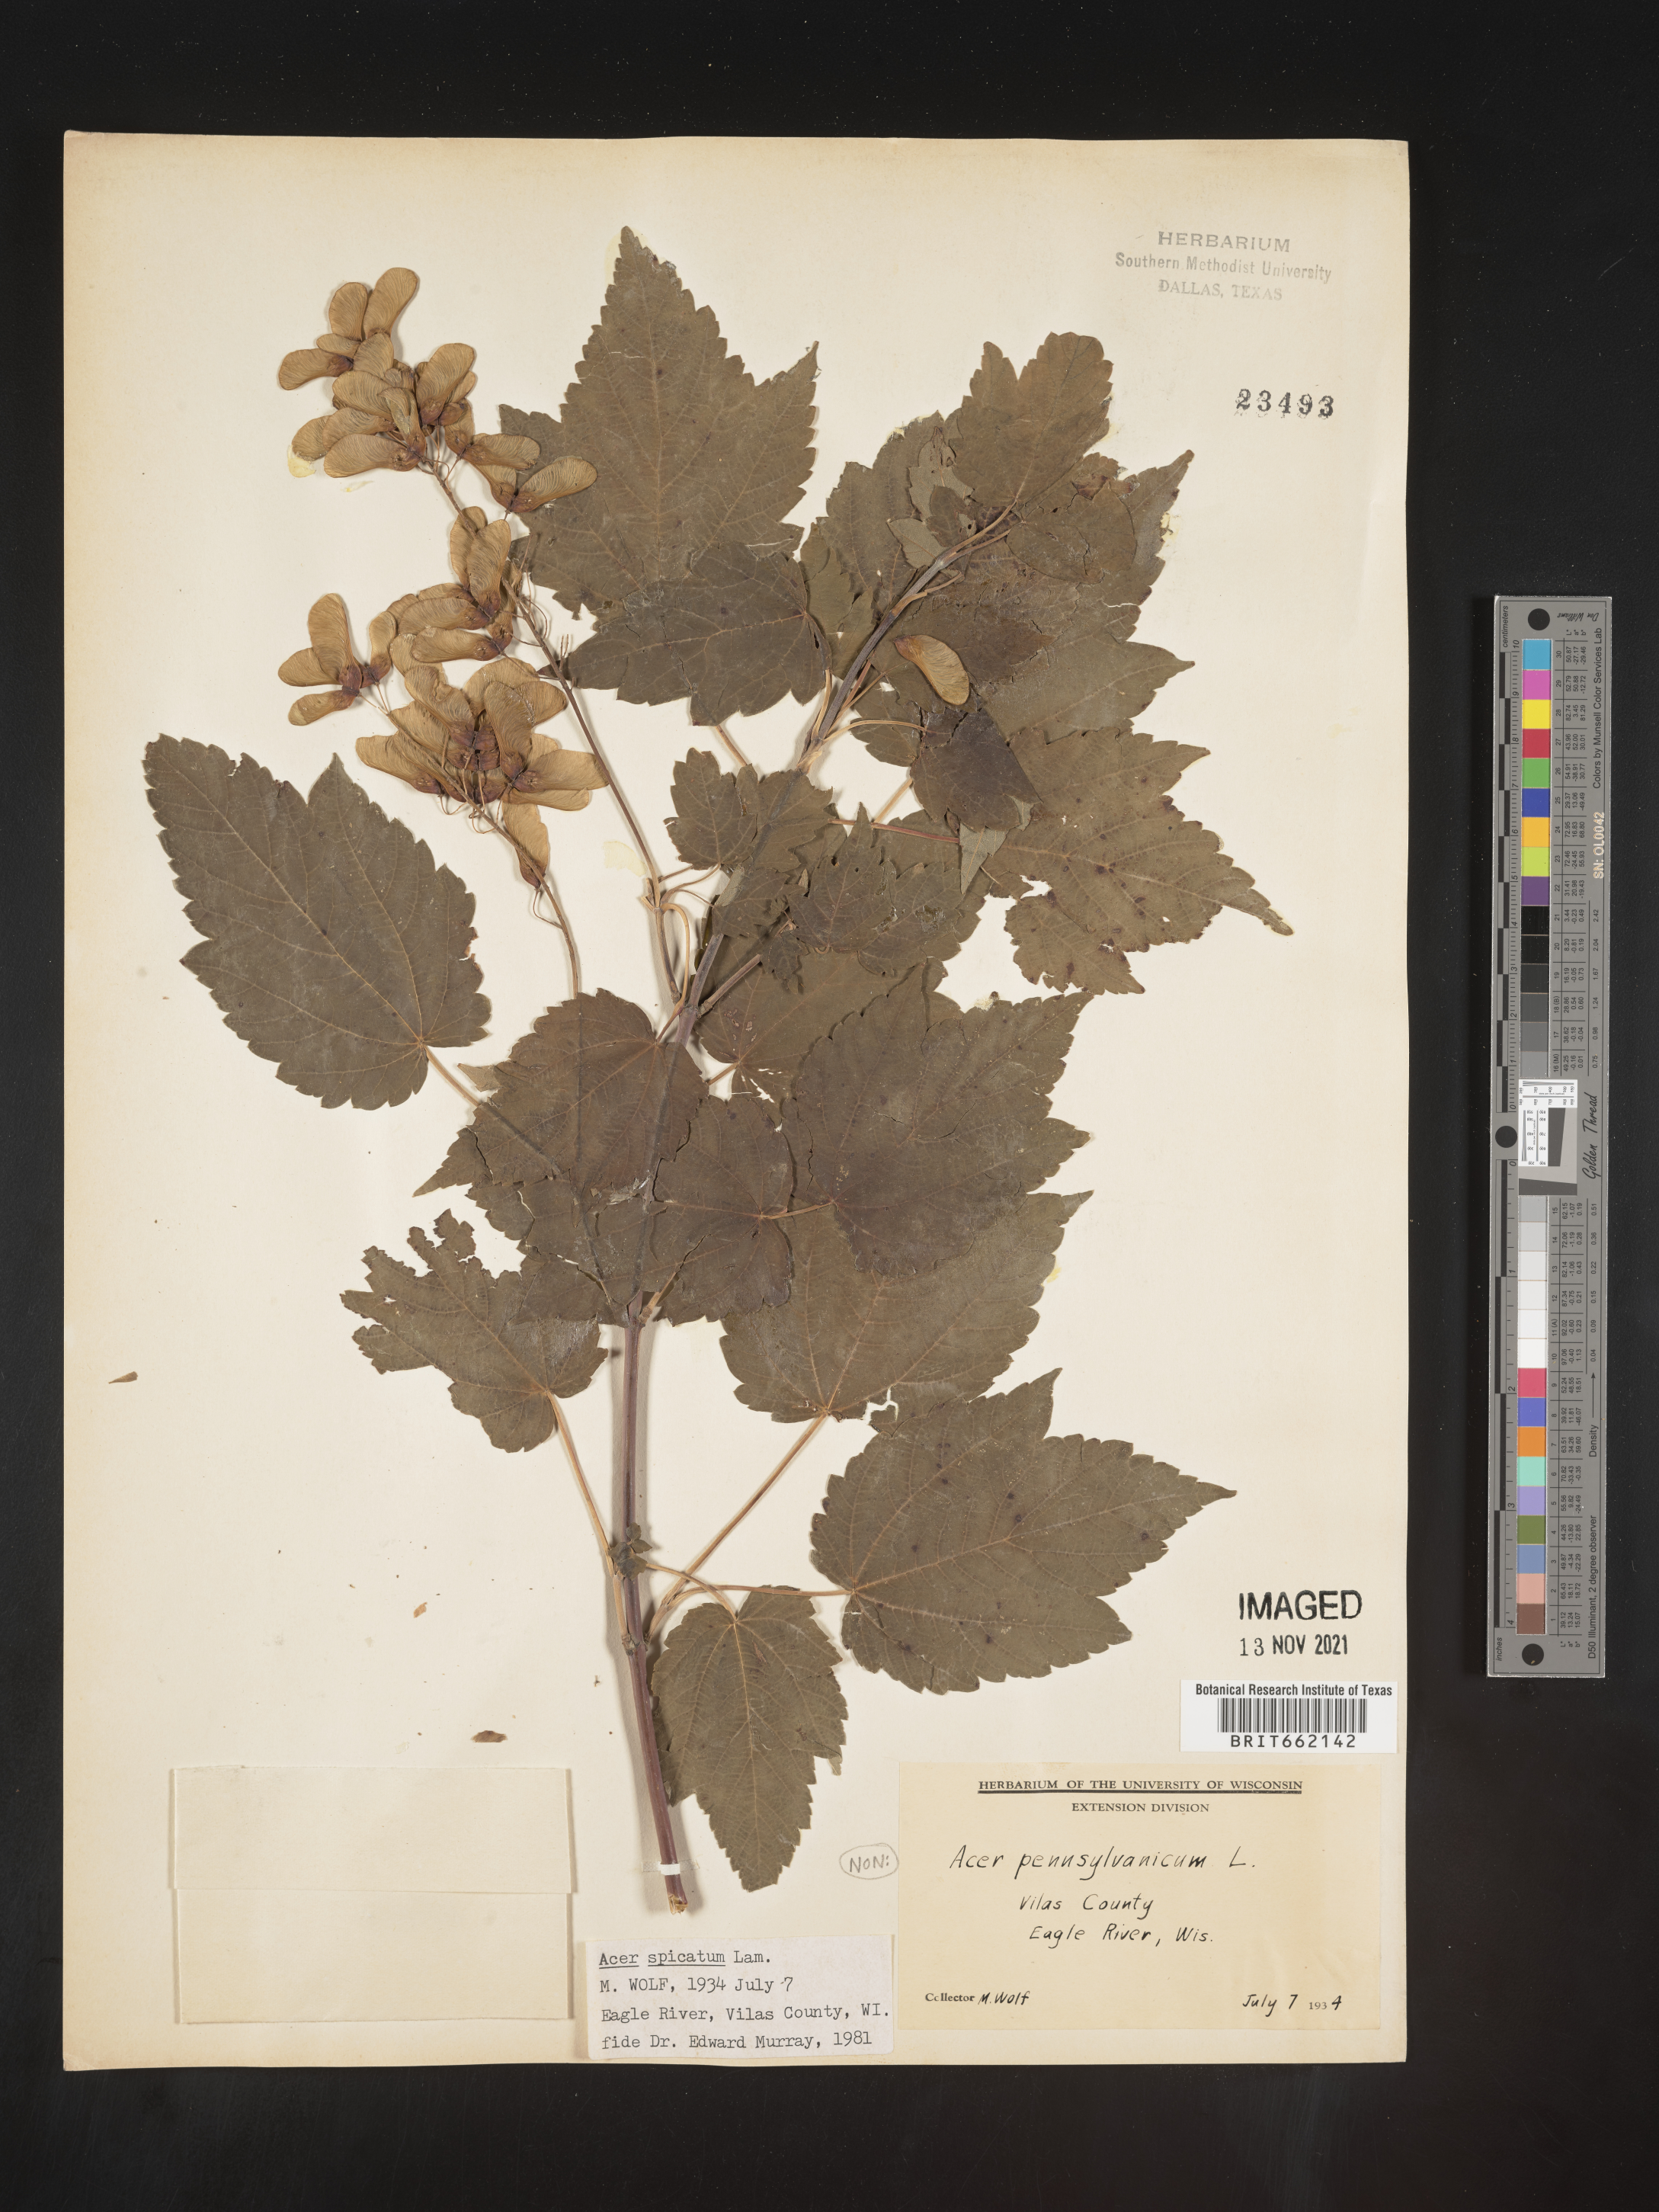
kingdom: Plantae
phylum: Tracheophyta
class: Magnoliopsida
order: Sapindales
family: Sapindaceae
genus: Acer
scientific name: Acer spicatum
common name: Mountain maple
